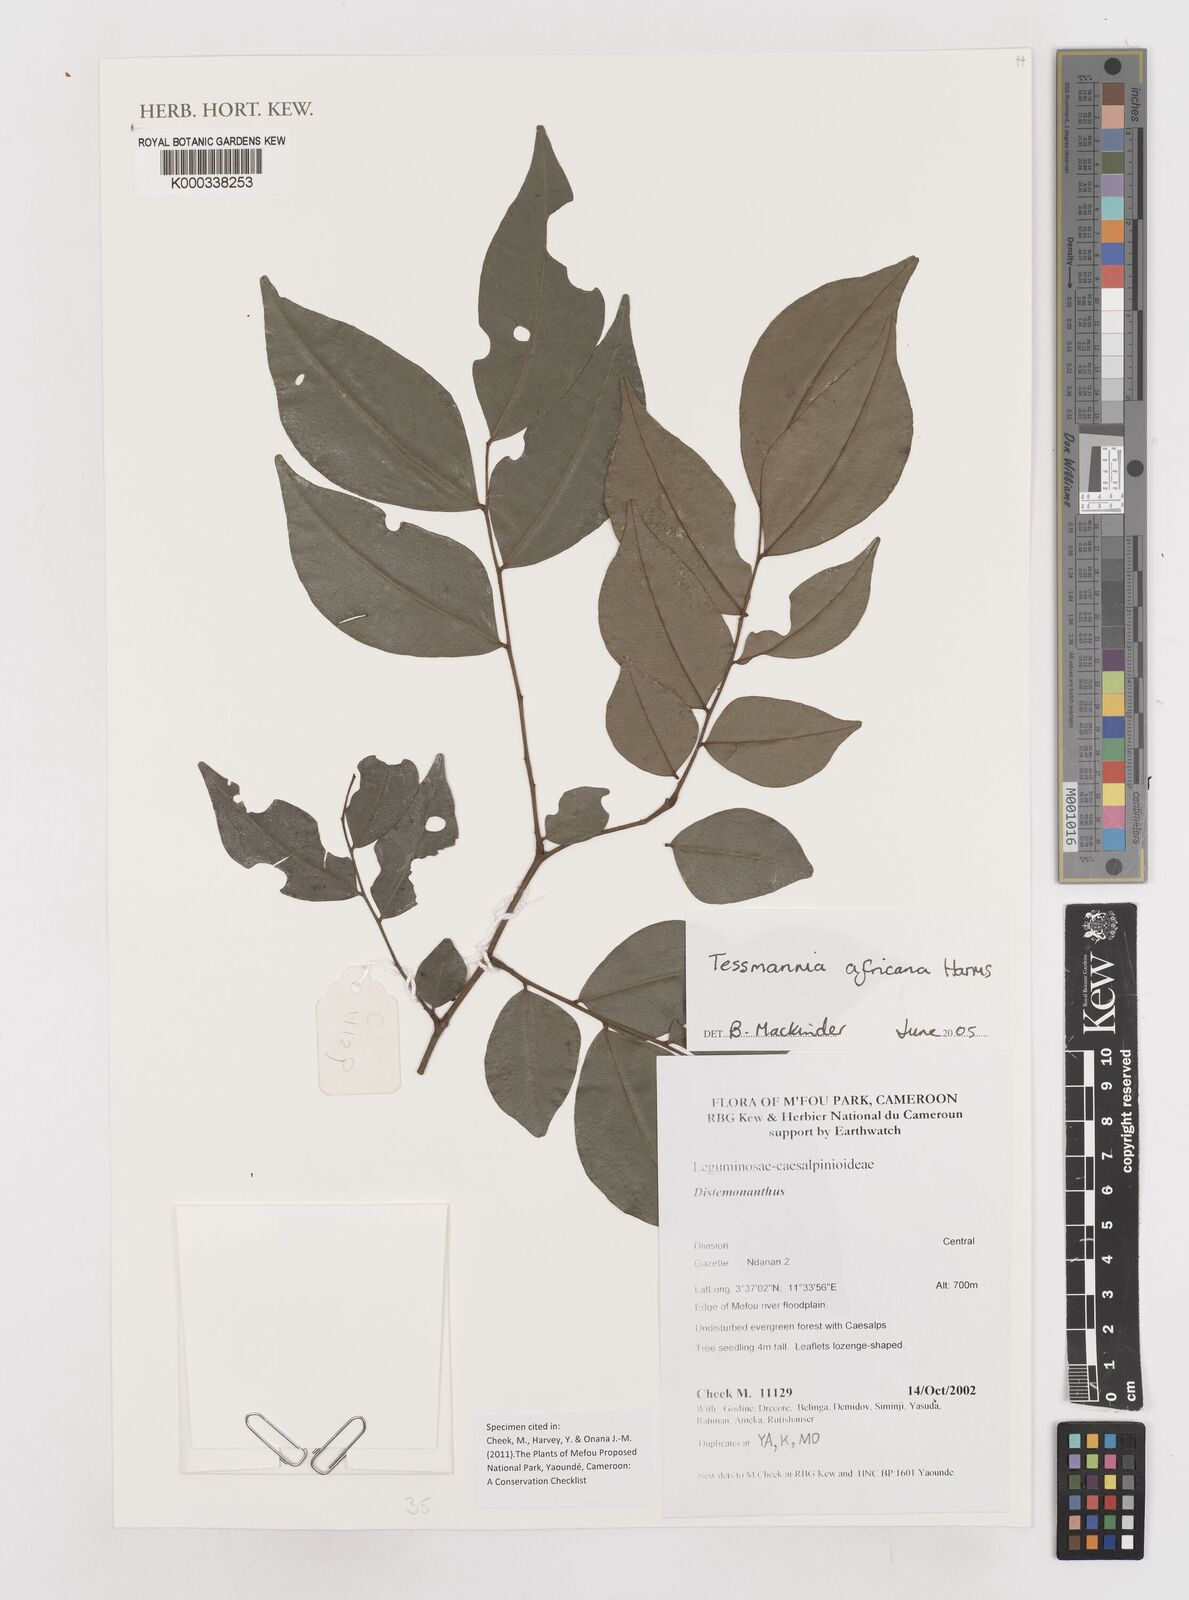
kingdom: Plantae
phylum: Tracheophyta
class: Magnoliopsida
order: Fabales
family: Fabaceae
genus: Tessmannia
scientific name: Tessmannia africana
